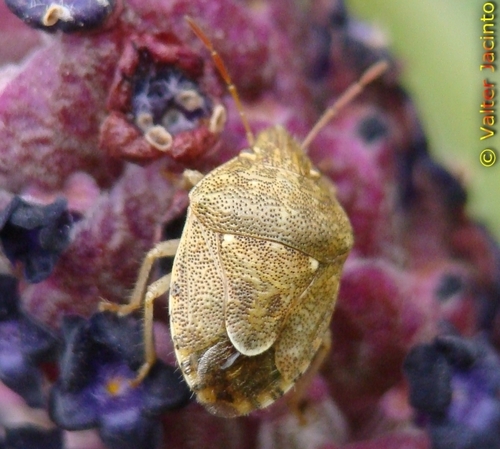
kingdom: Animalia
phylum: Arthropoda
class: Insecta
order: Hemiptera
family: Pentatomidae
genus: Staria
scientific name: Staria lunata
